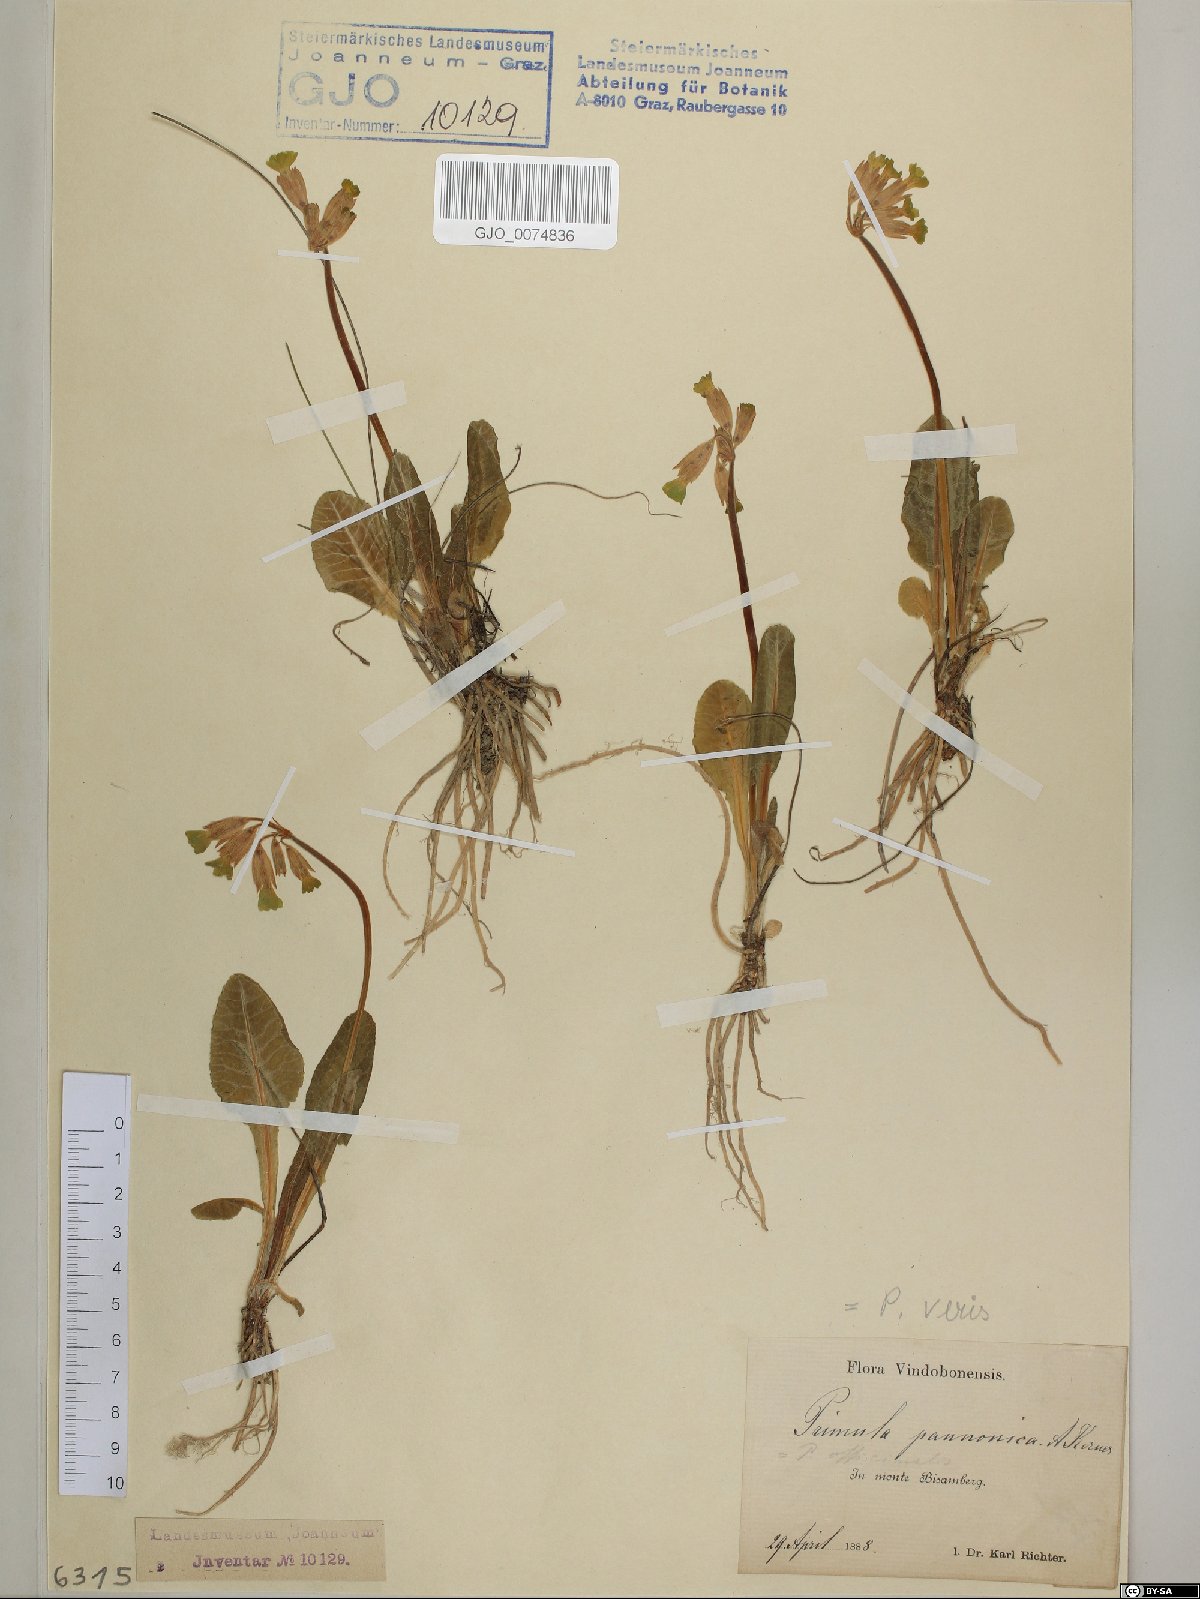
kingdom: Plantae
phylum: Tracheophyta
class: Magnoliopsida
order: Ericales
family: Primulaceae
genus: Primula
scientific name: Primula veris
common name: Cowslip
